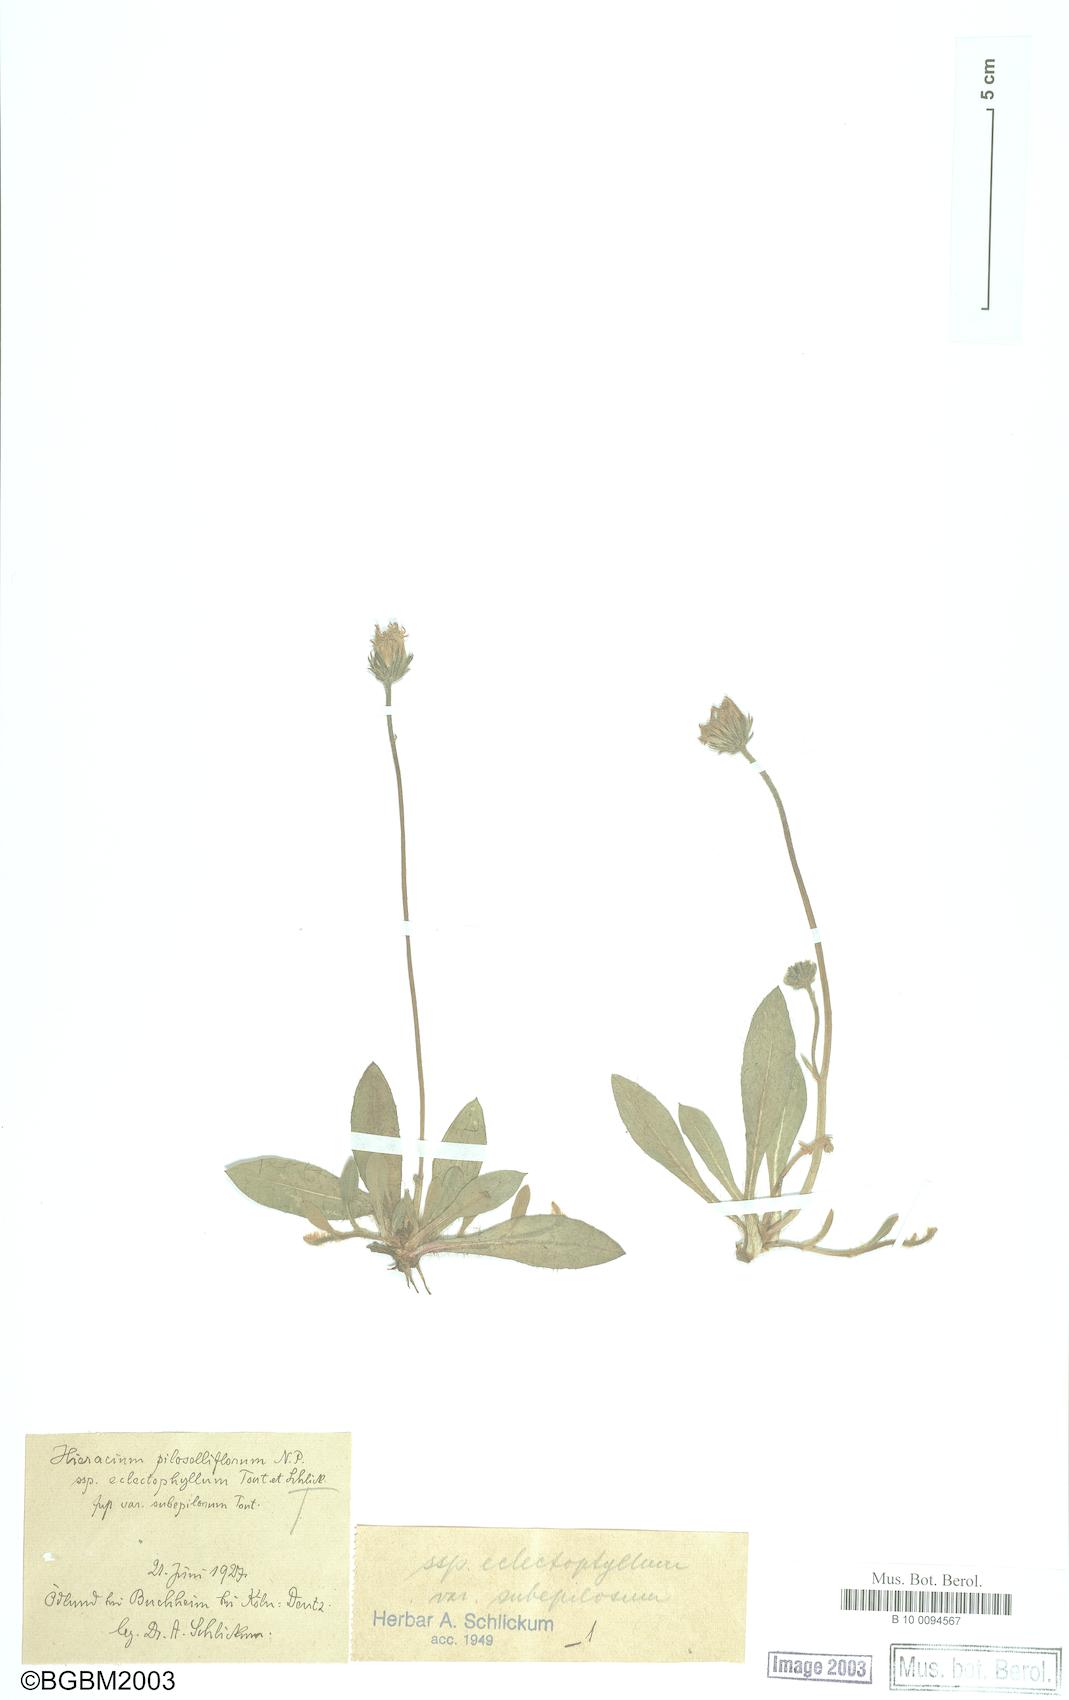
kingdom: Plantae
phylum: Tracheophyta
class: Magnoliopsida
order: Asterales
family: Asteraceae
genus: Pilosella
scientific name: Pilosella piloselliflora
